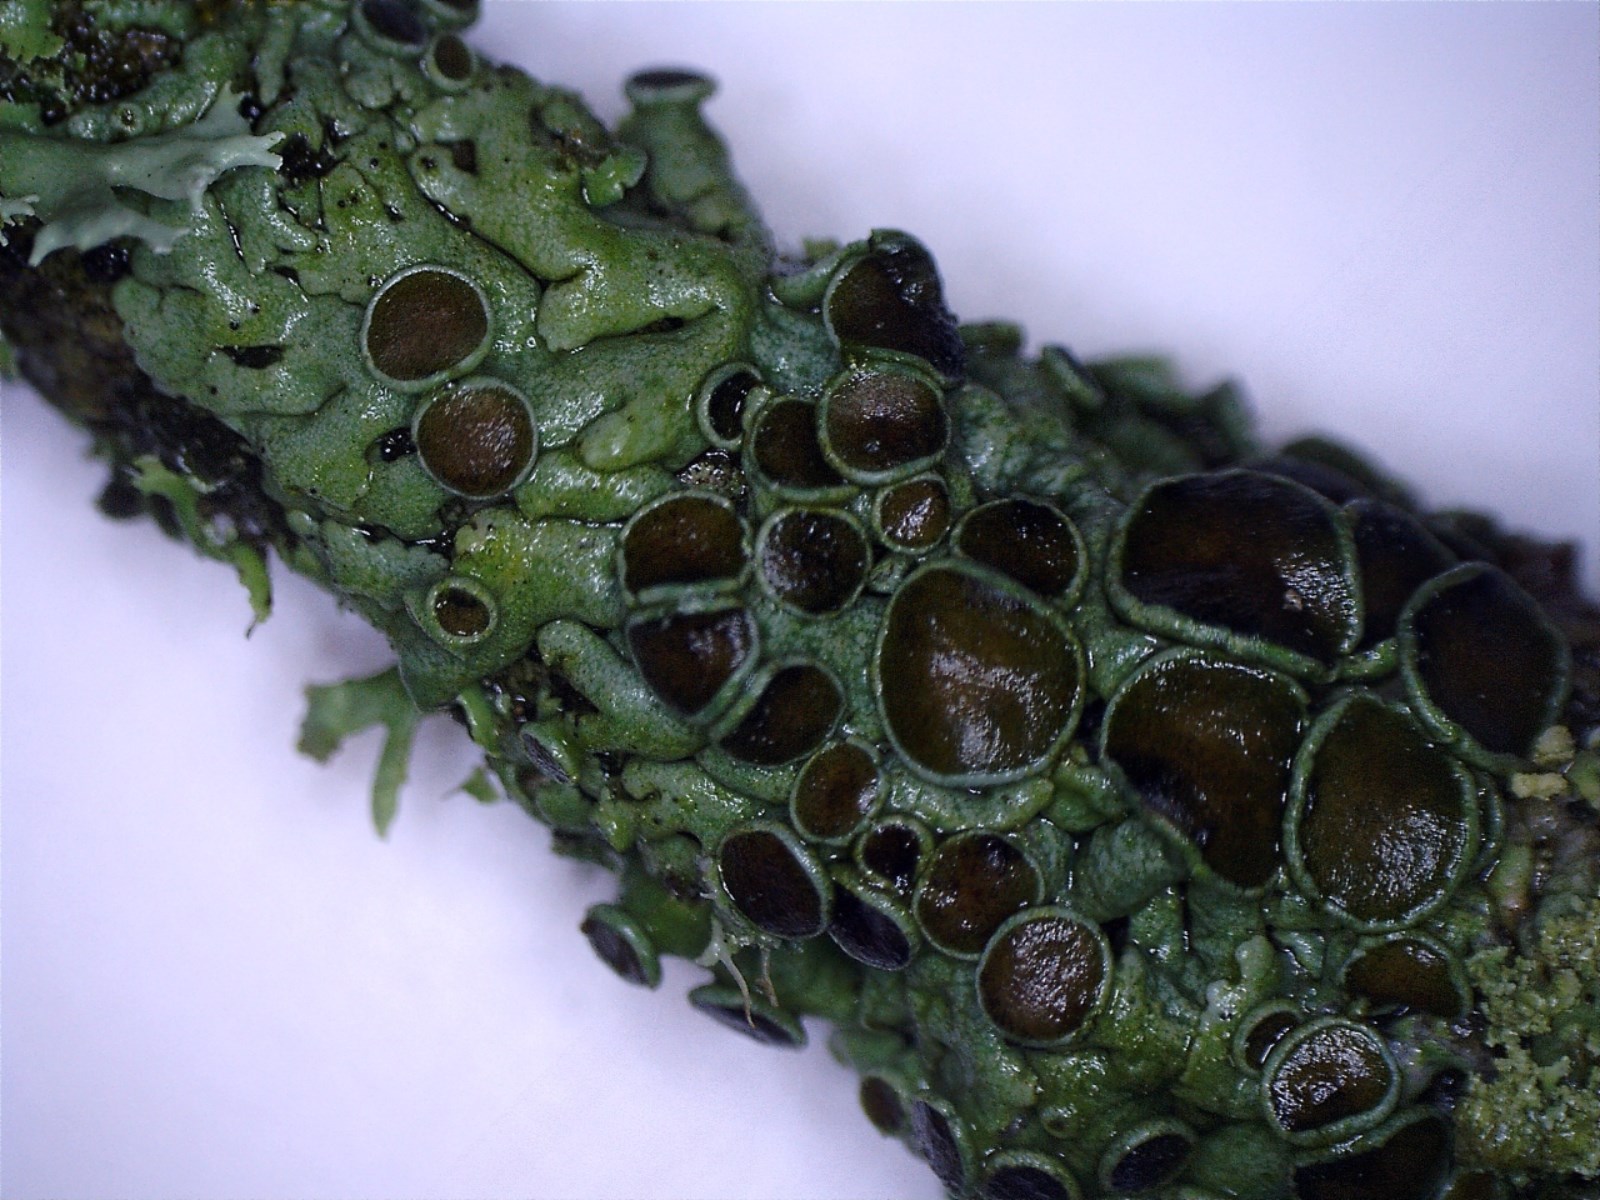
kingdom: Fungi
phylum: Ascomycota
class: Lecanoromycetes
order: Caliciales
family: Physciaceae
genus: Physcia
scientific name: Physcia aipolia
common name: hvidprikket rosetlav
